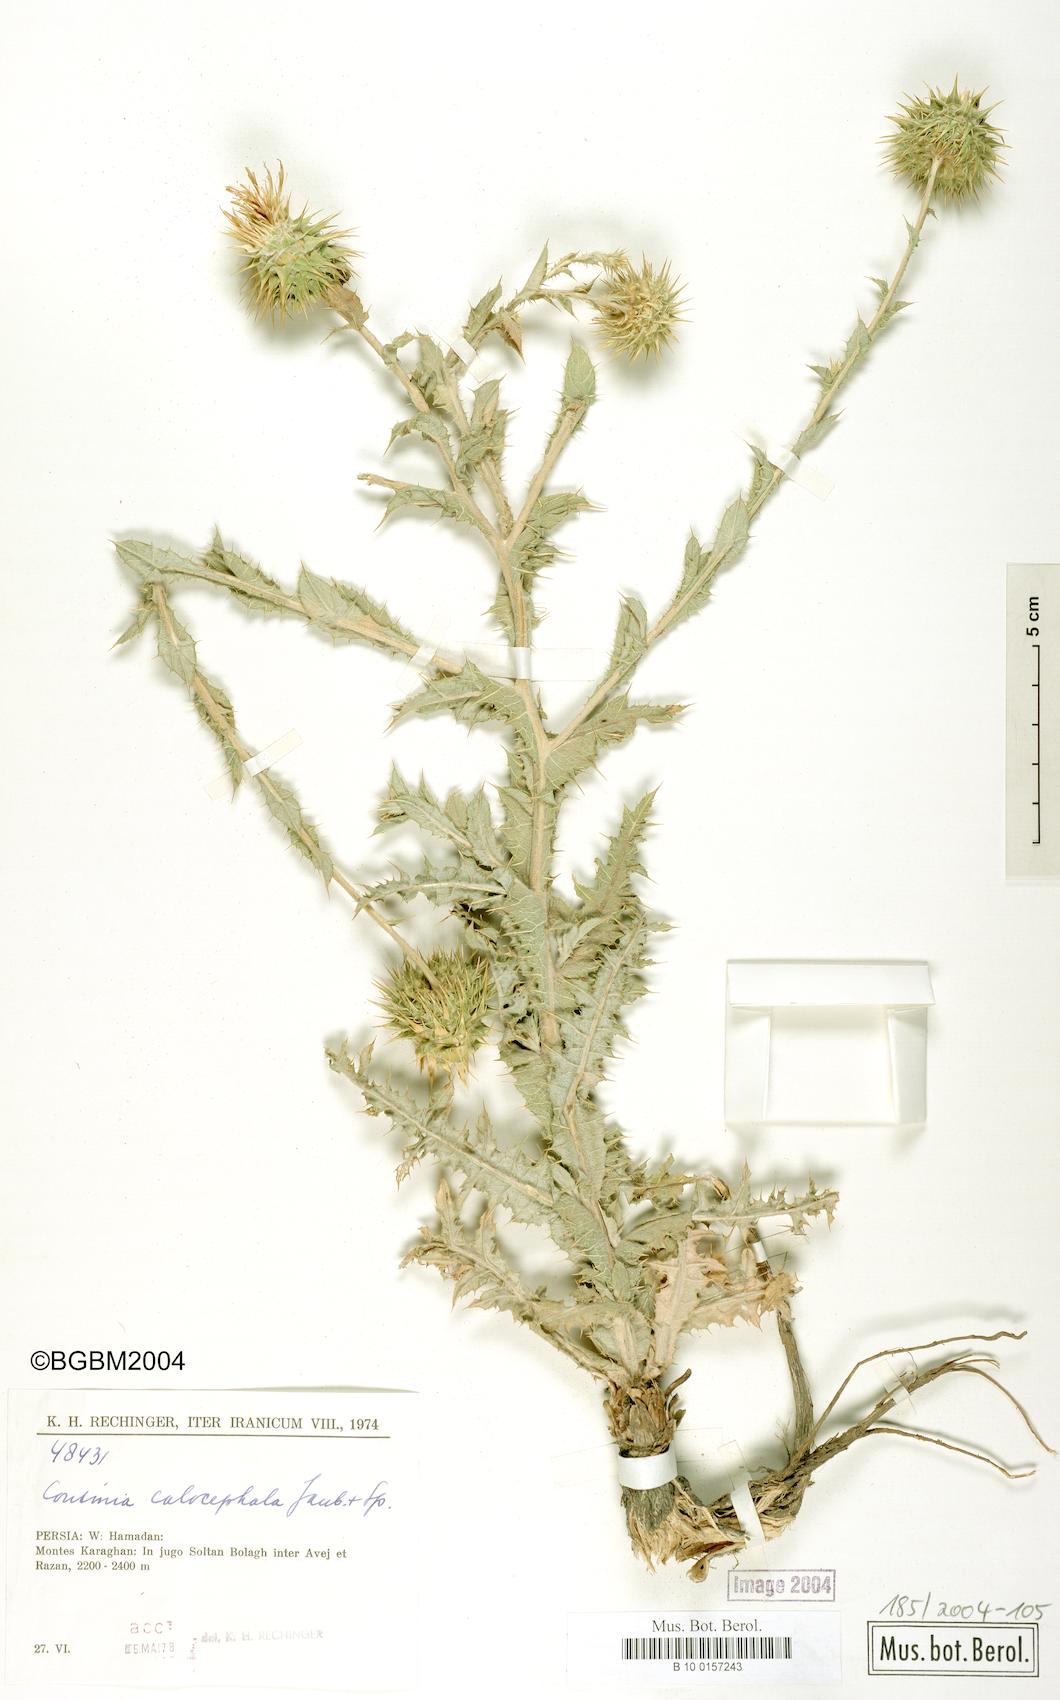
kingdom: Plantae
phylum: Tracheophyta
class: Magnoliopsida
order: Asterales
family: Asteraceae
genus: Cousinia
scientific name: Cousinia calocephala
